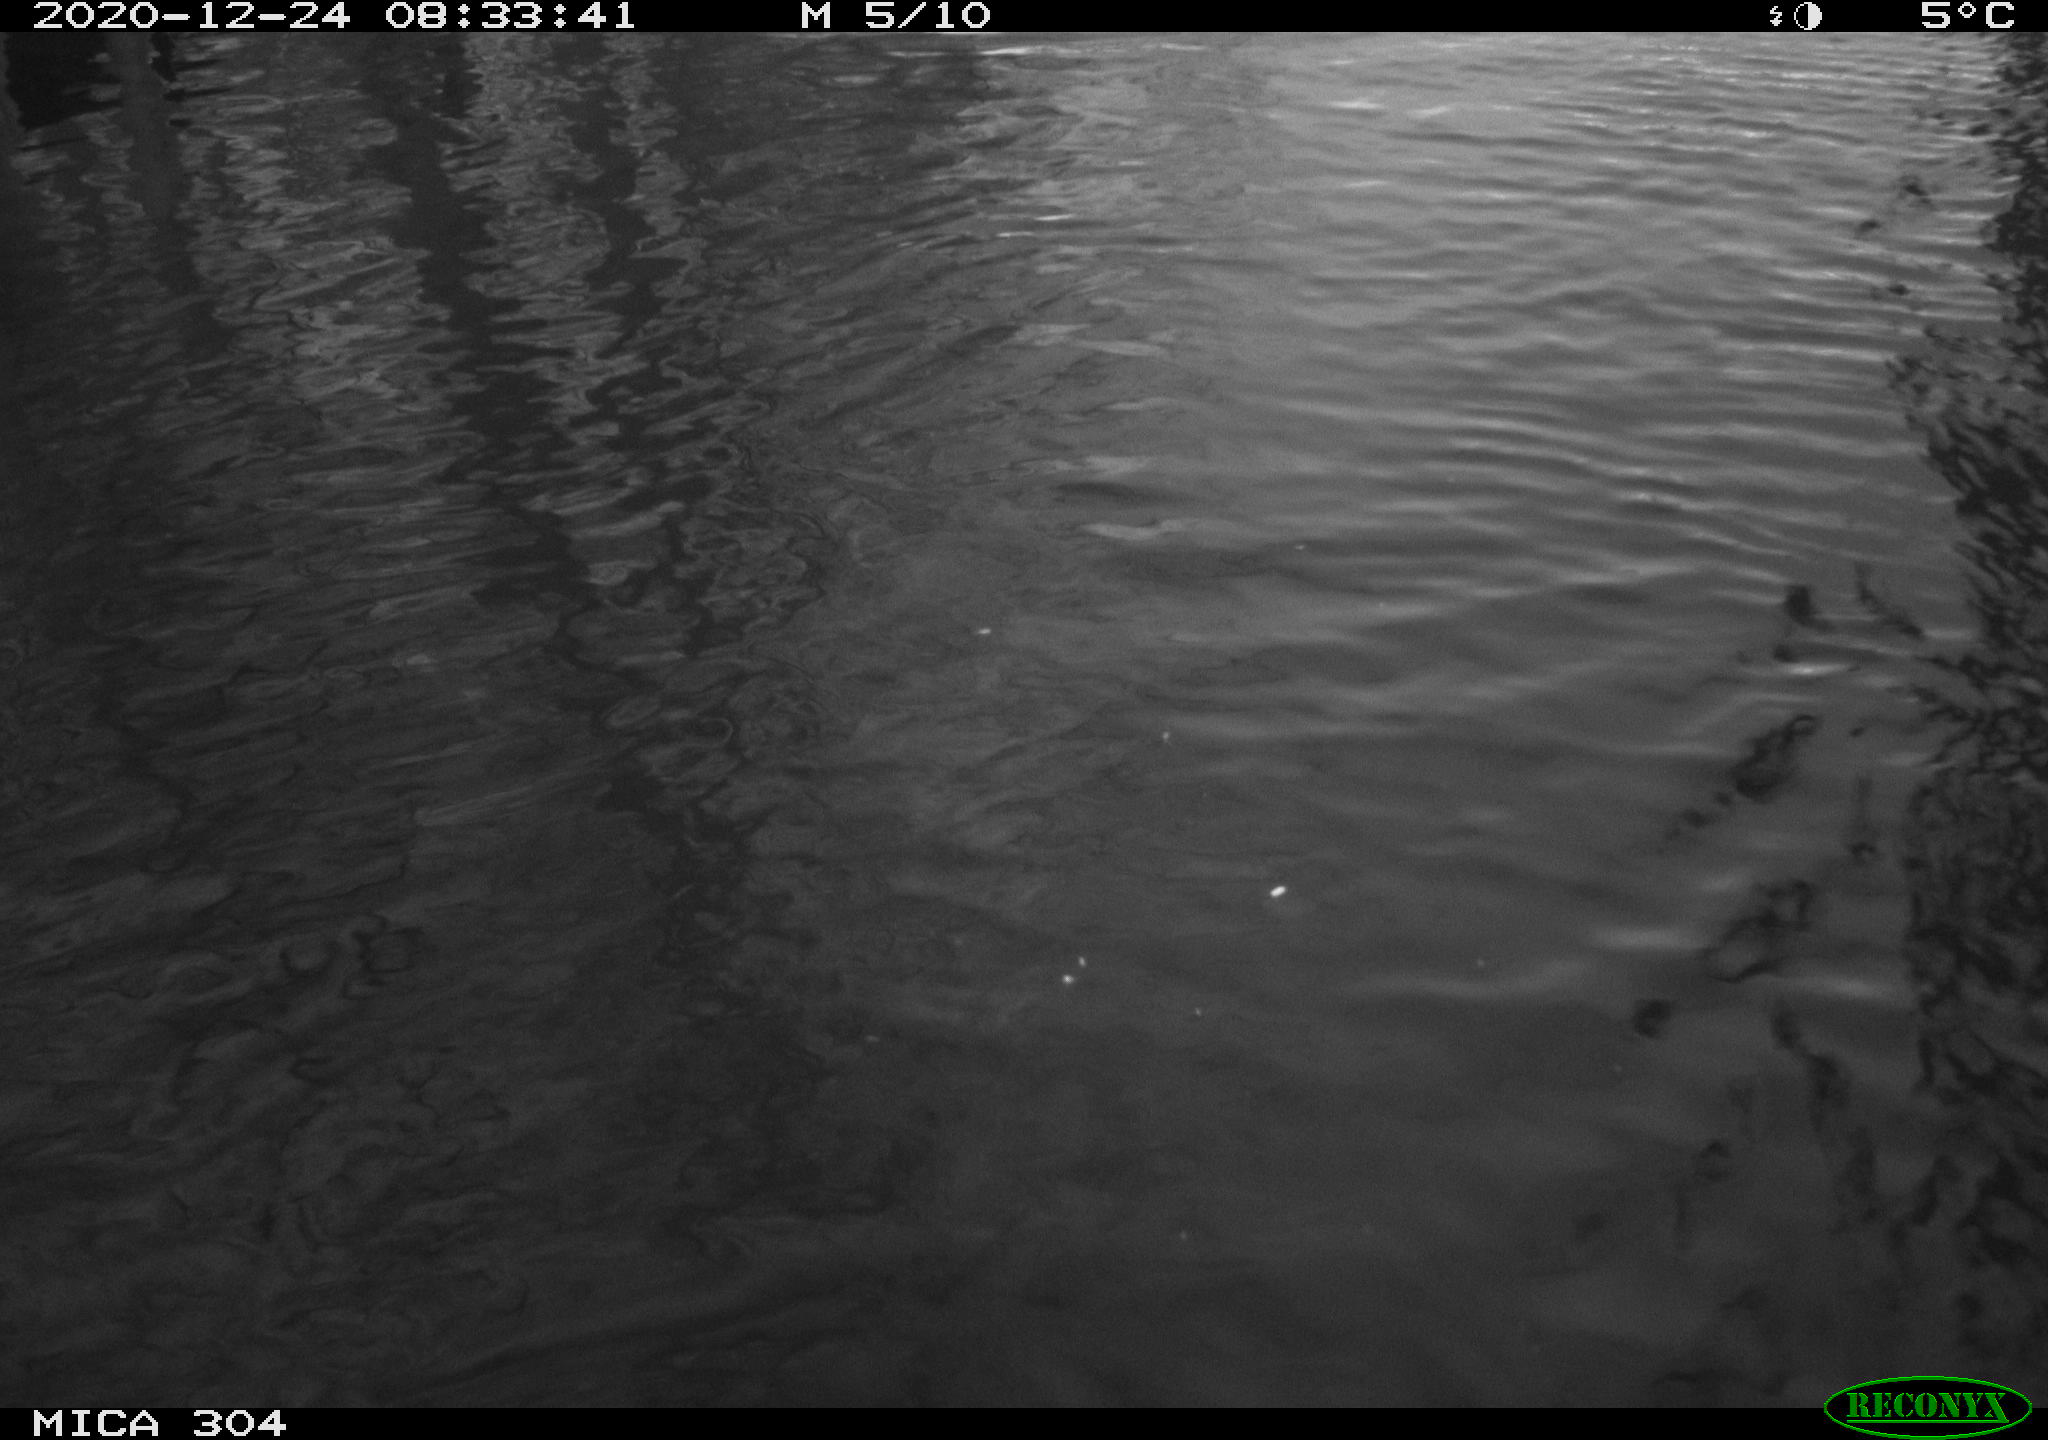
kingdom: Animalia
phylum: Chordata
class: Aves
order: Gruiformes
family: Rallidae
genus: Gallinula
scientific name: Gallinula chloropus
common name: Common moorhen
